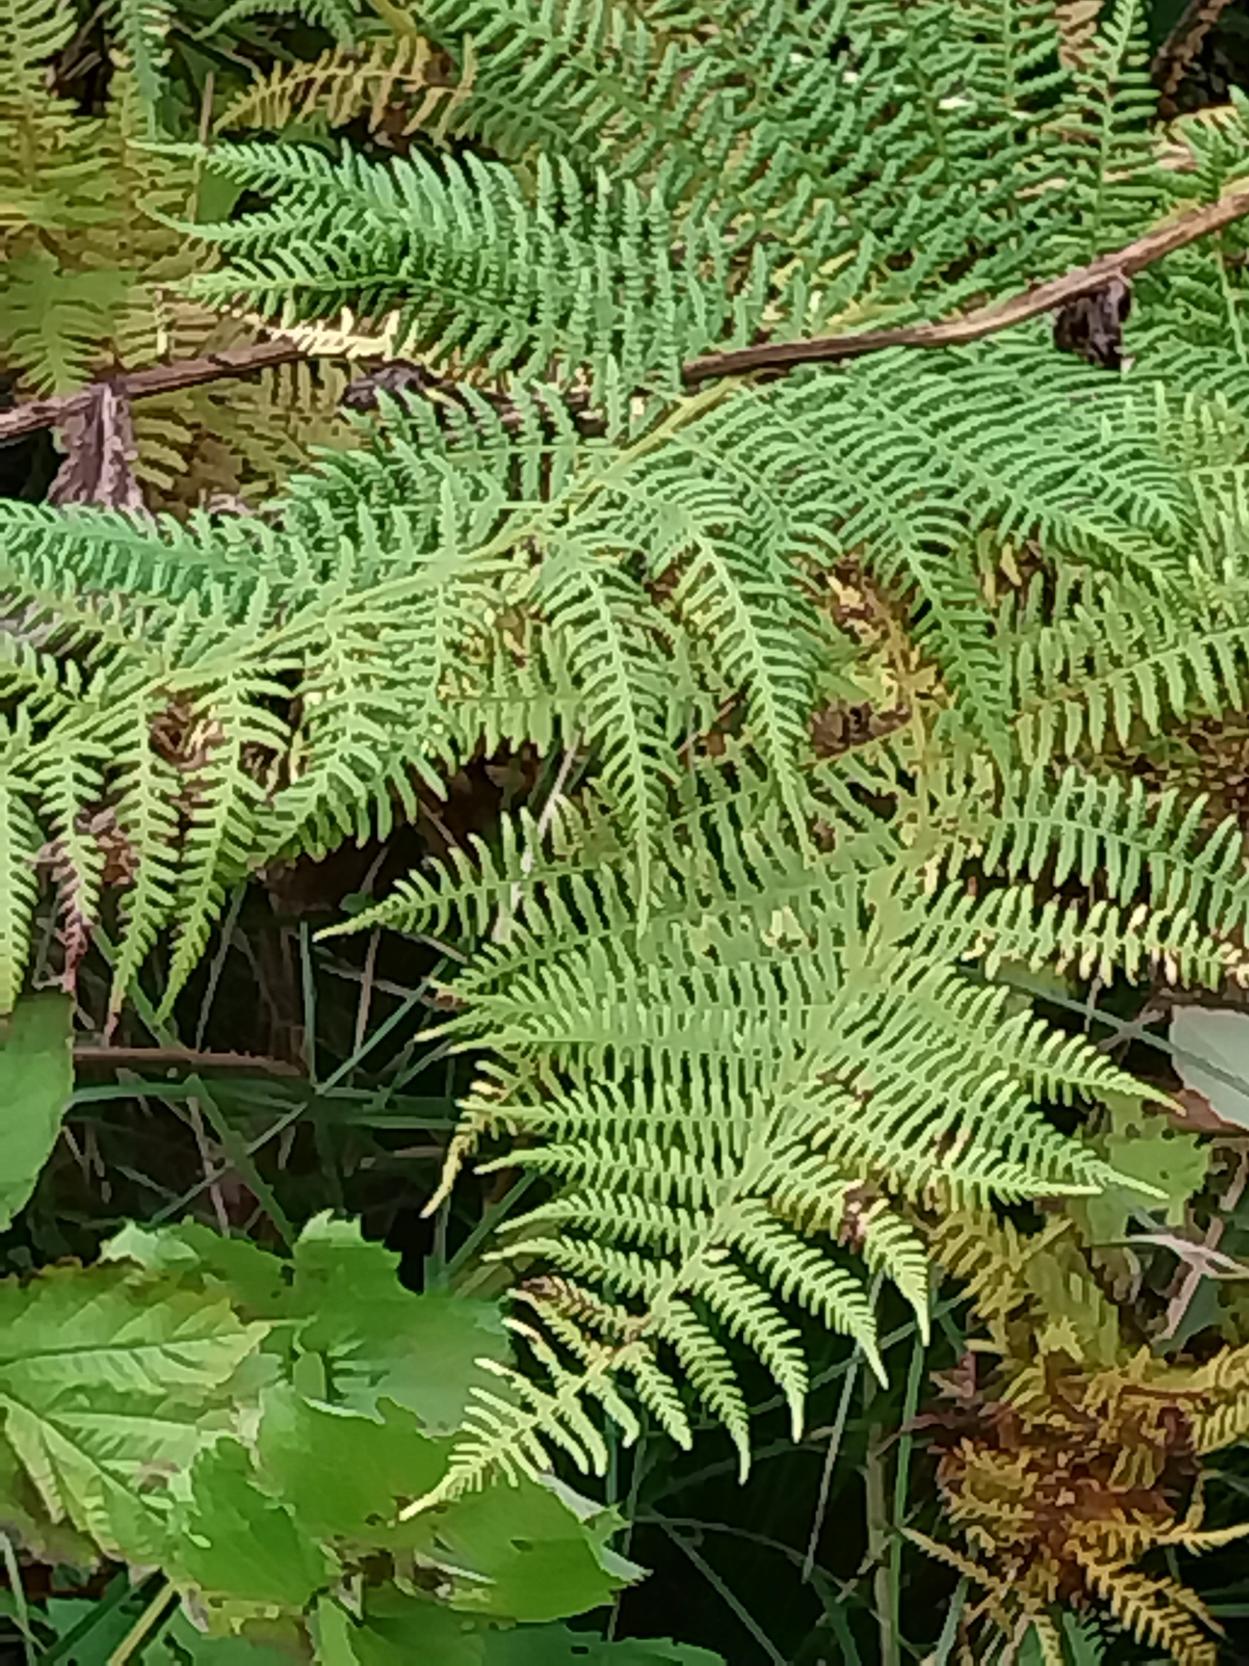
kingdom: Plantae
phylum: Tracheophyta
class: Polypodiopsida
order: Polypodiales
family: Athyriaceae
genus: Athyrium
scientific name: Athyrium filix-femina
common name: Fjerbregne
